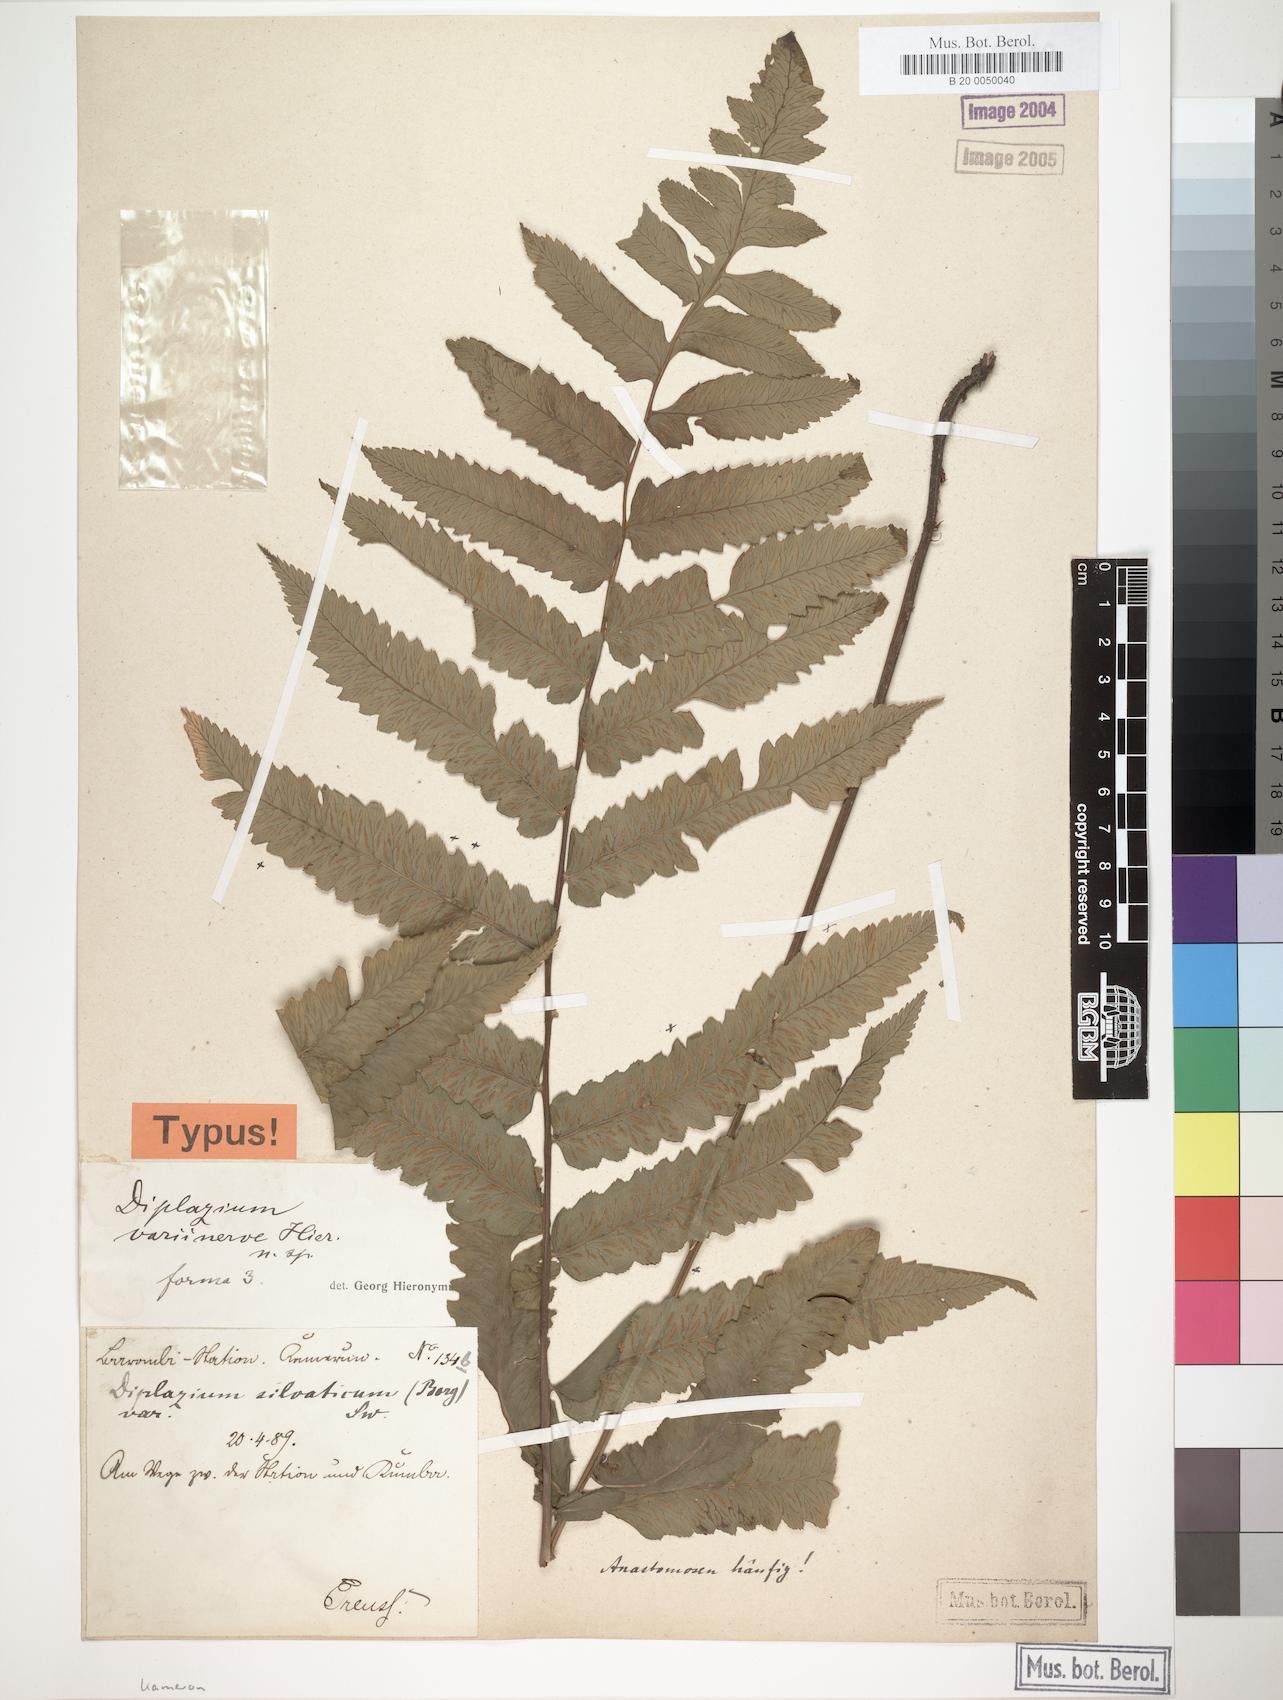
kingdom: Plantae
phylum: Tracheophyta
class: Polypodiopsida
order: Polypodiales
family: Athyriaceae
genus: Diplazium
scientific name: Diplazium welwitschii
